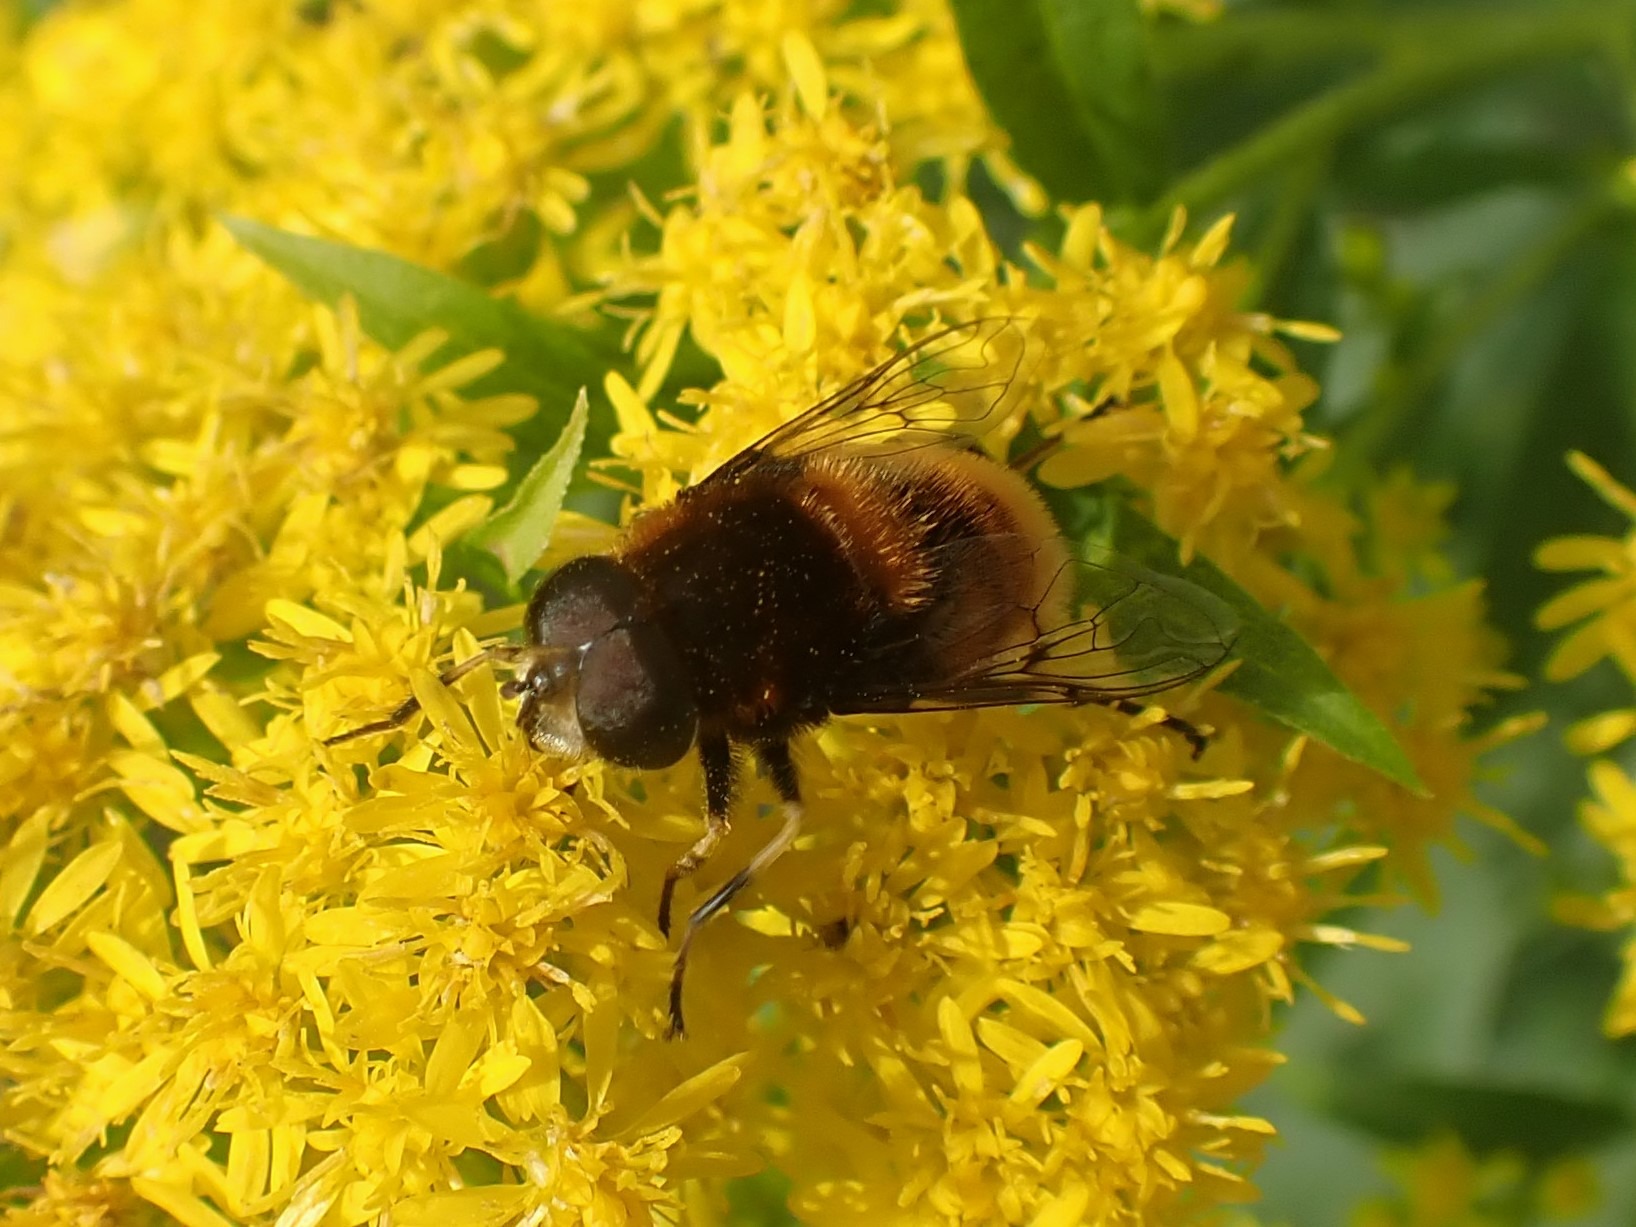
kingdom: Animalia
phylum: Arthropoda
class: Insecta
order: Diptera
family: Syrphidae
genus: Eristalis
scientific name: Eristalis intricaria
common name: Håret dyndflue
